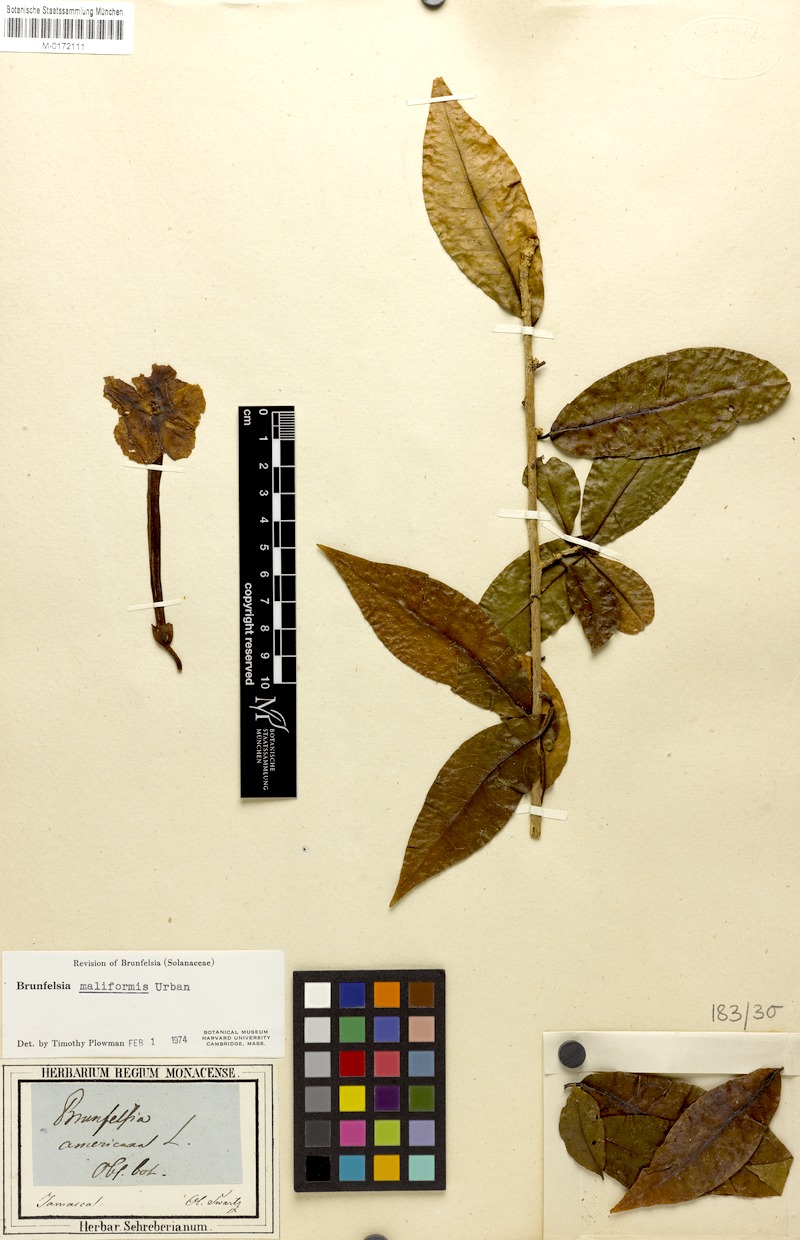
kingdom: Plantae
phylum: Tracheophyta
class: Magnoliopsida
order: Solanales
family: Solanaceae
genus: Brunfelsia
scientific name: Brunfelsia maliformis
